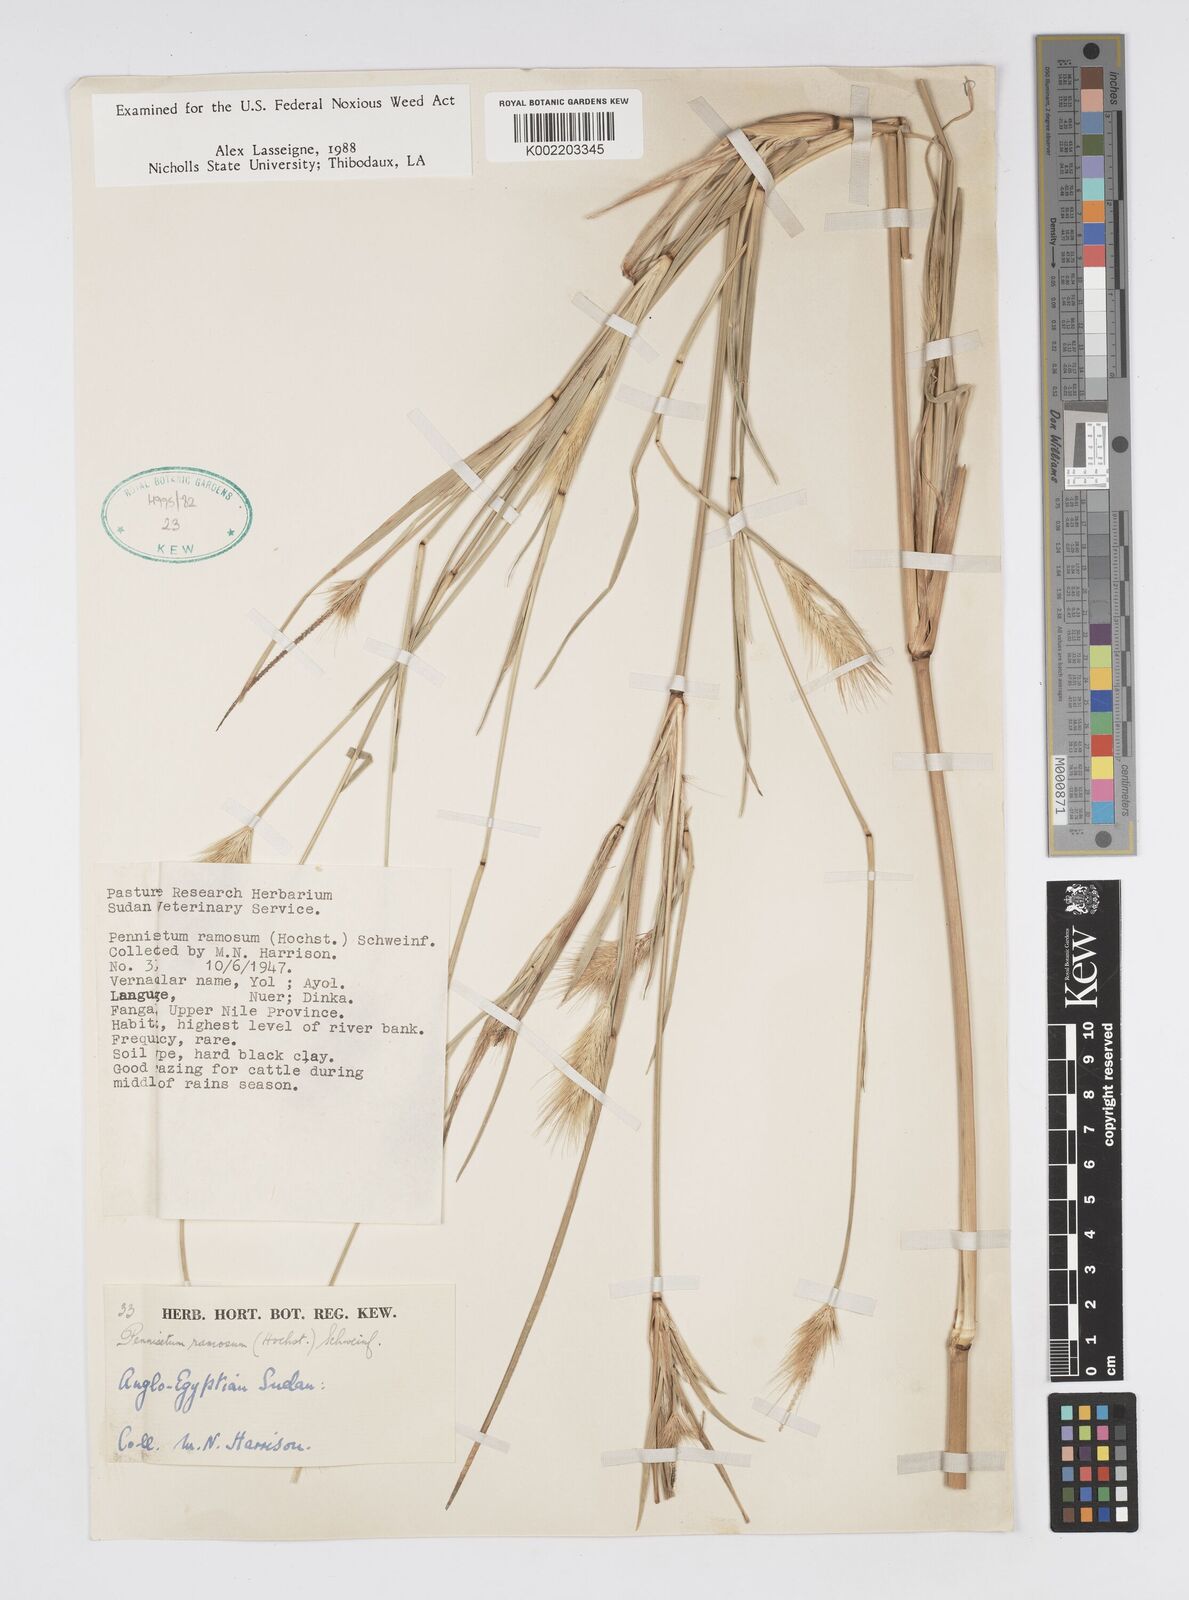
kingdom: Plantae
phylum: Tracheophyta
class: Liliopsida
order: Poales
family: Poaceae
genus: Cenchrus
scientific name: Cenchrus ramosus
